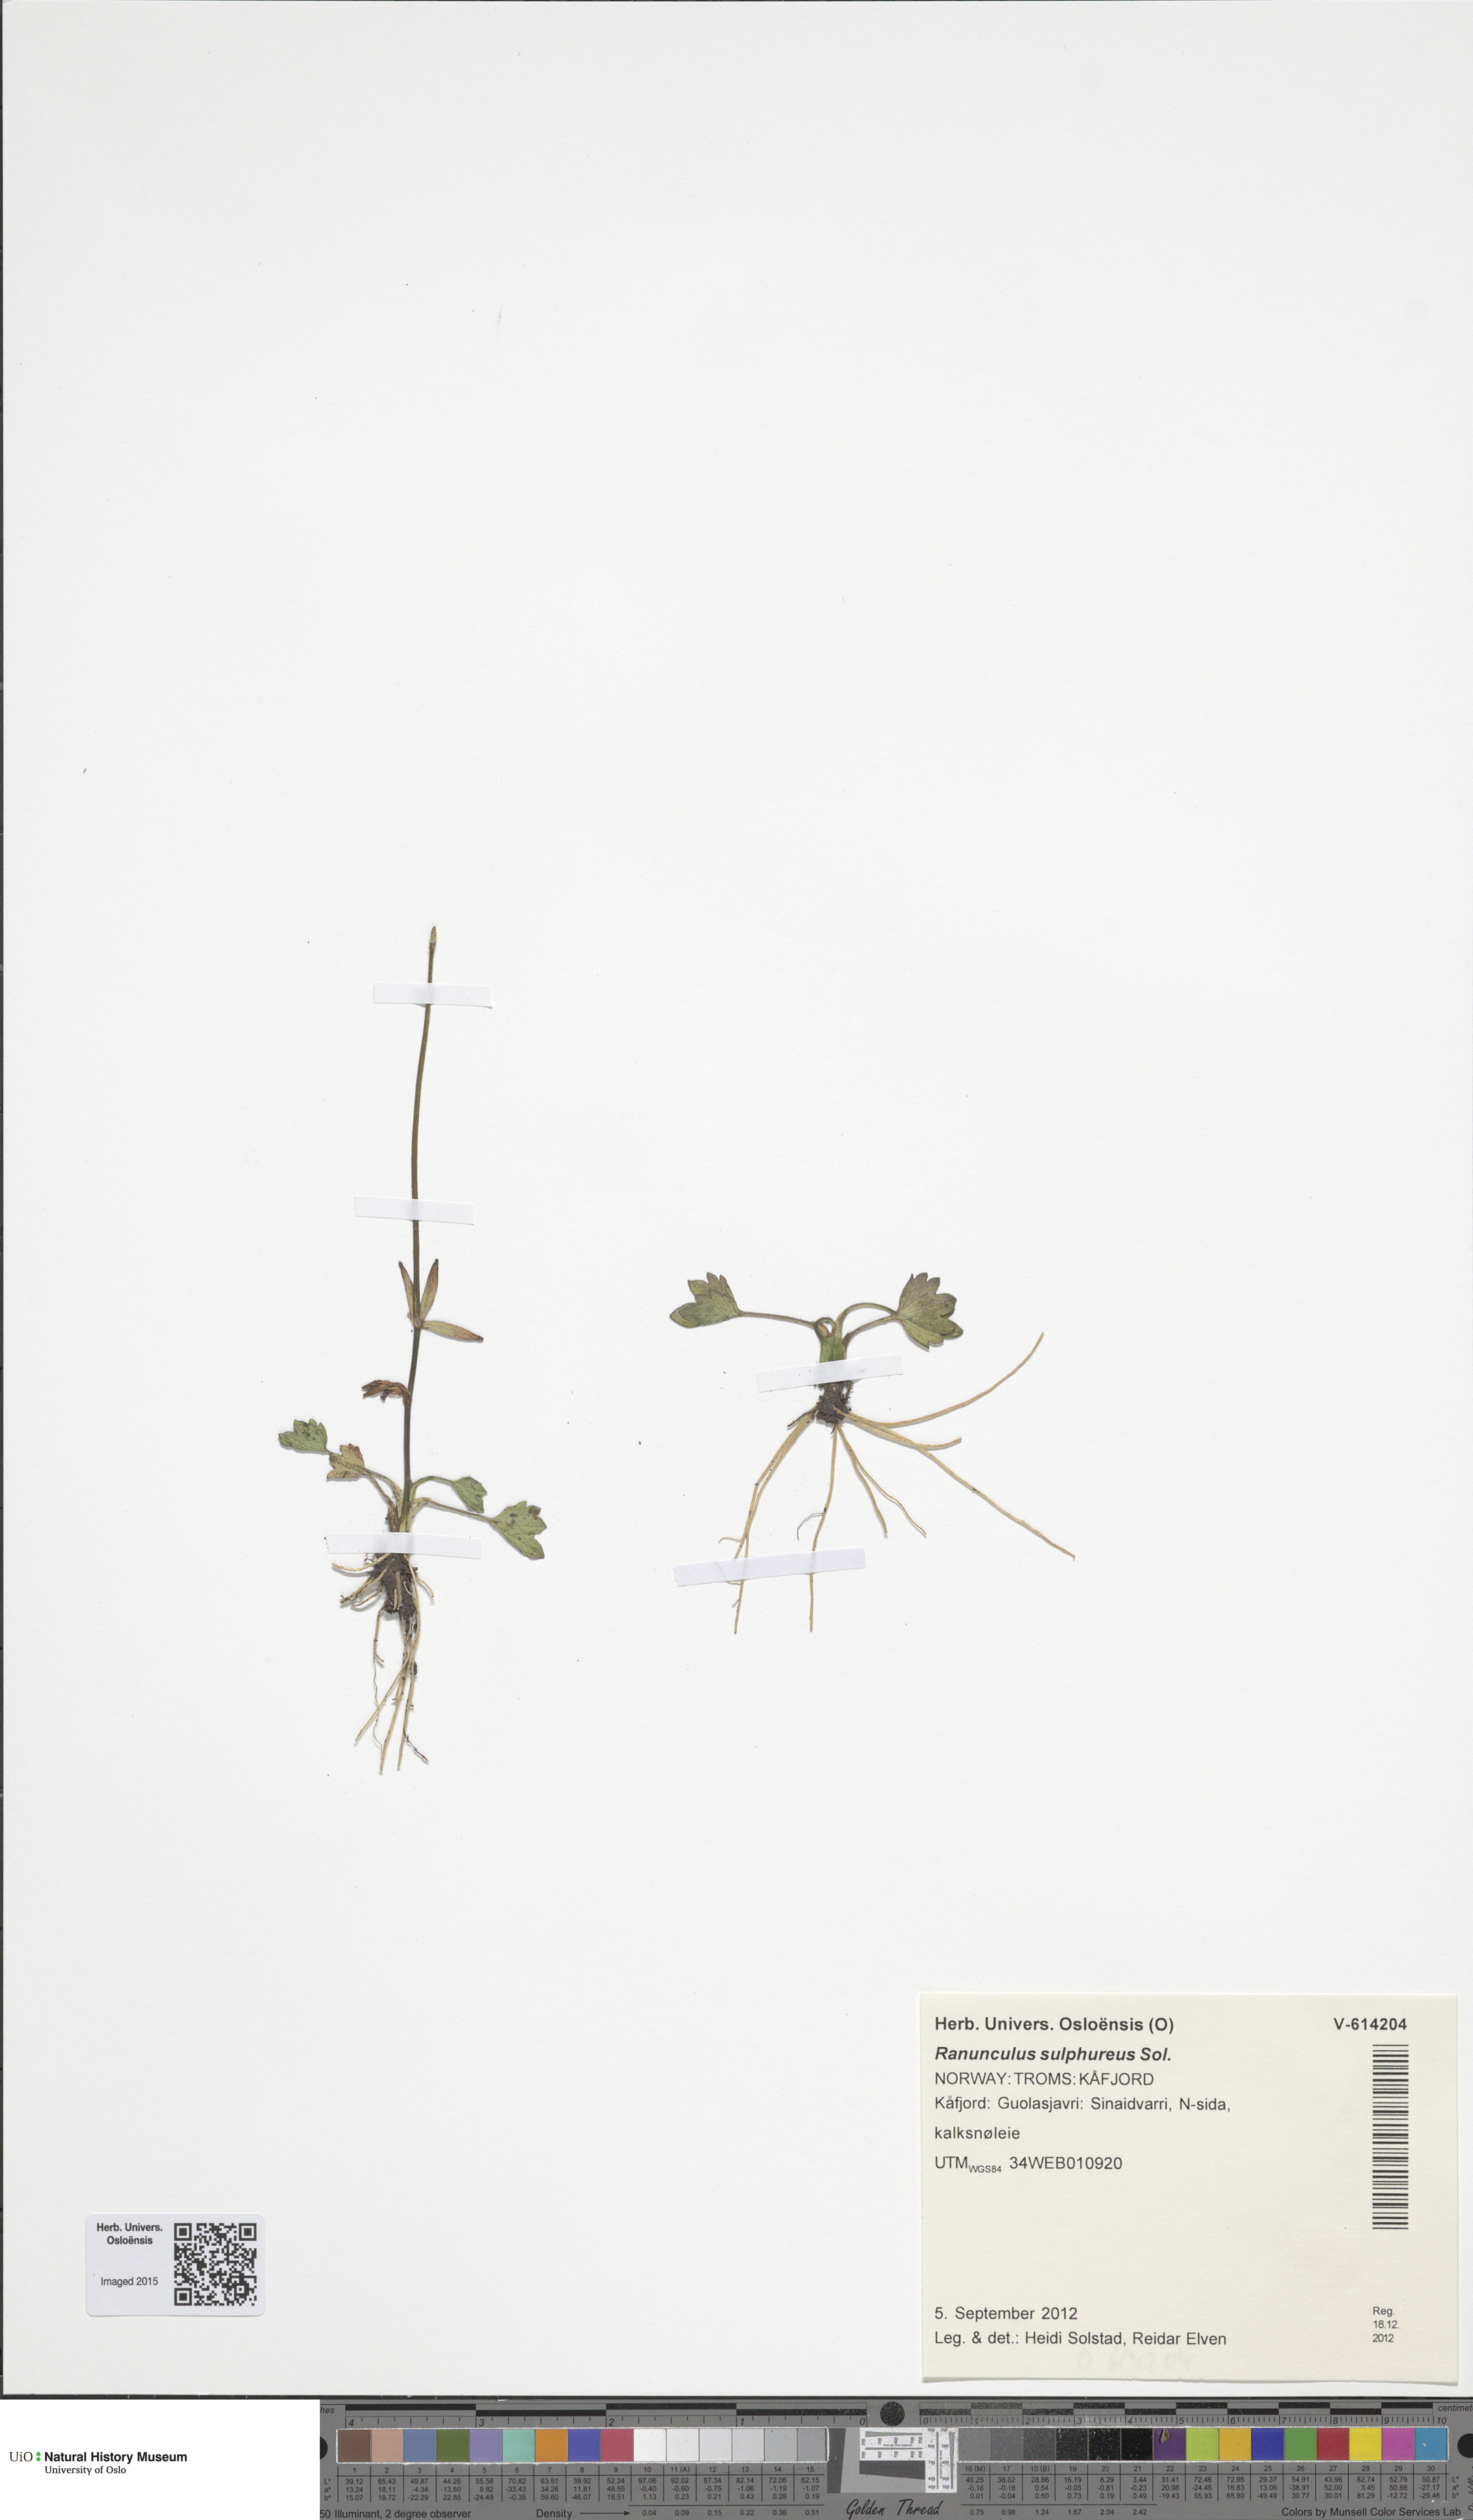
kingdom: Plantae
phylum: Tracheophyta
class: Magnoliopsida
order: Ranunculales
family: Ranunculaceae
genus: Ranunculus
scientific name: Ranunculus sulphureus
